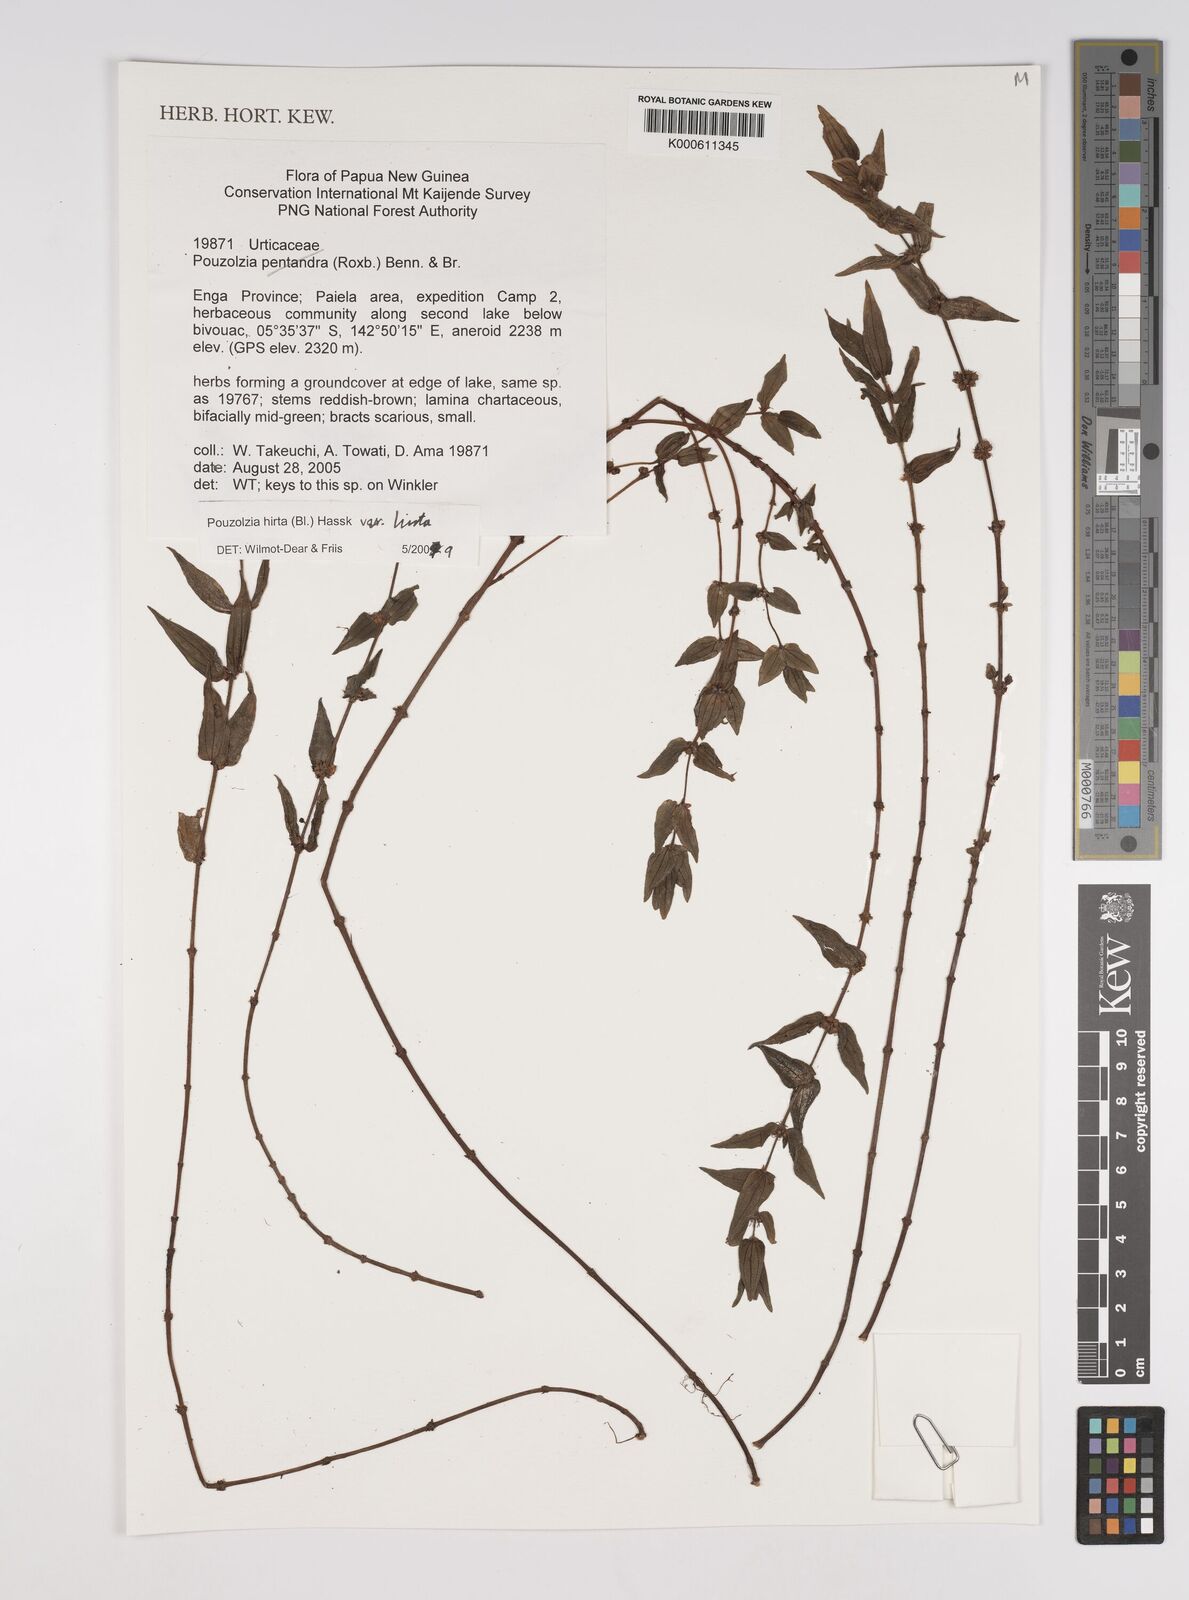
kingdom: Plantae
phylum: Tracheophyta
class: Magnoliopsida
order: Rosales
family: Urticaceae
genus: Gonostegia
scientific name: Gonostegia triandra
